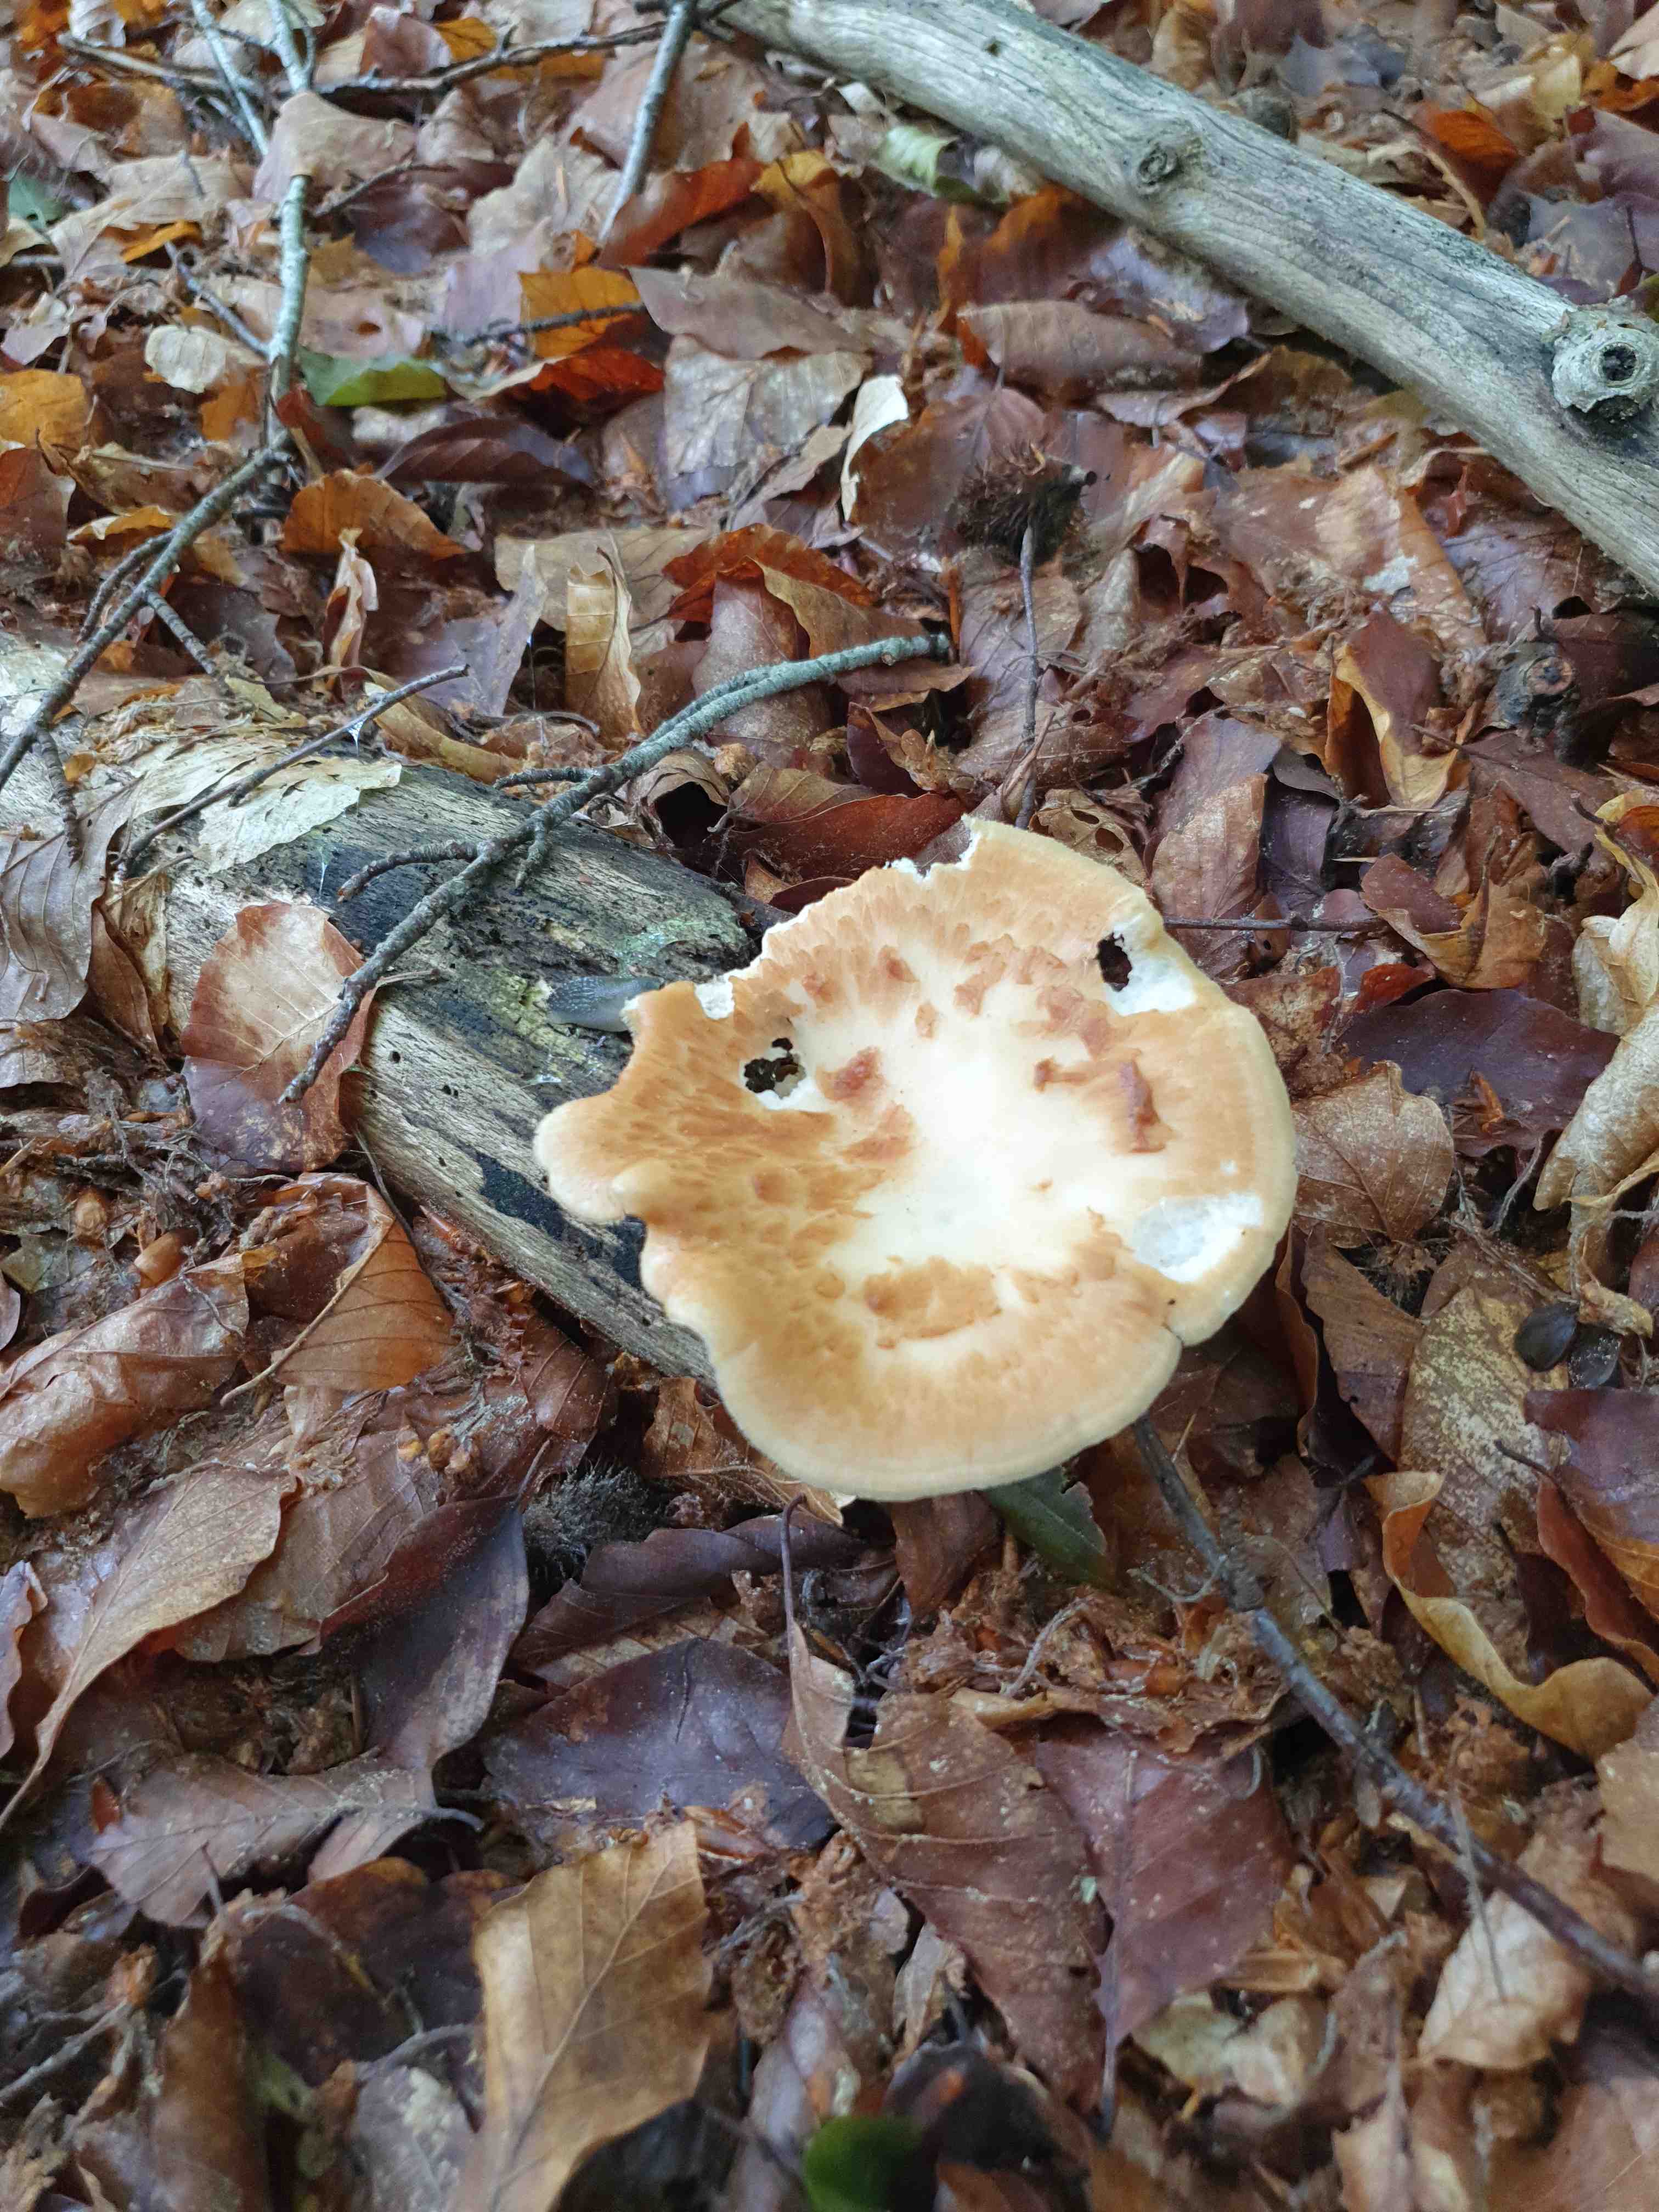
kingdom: Fungi
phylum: Basidiomycota
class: Agaricomycetes
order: Polyporales
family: Polyporaceae
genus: Polyporus
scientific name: Polyporus tuberaster
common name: knoldet stilkporesvamp
